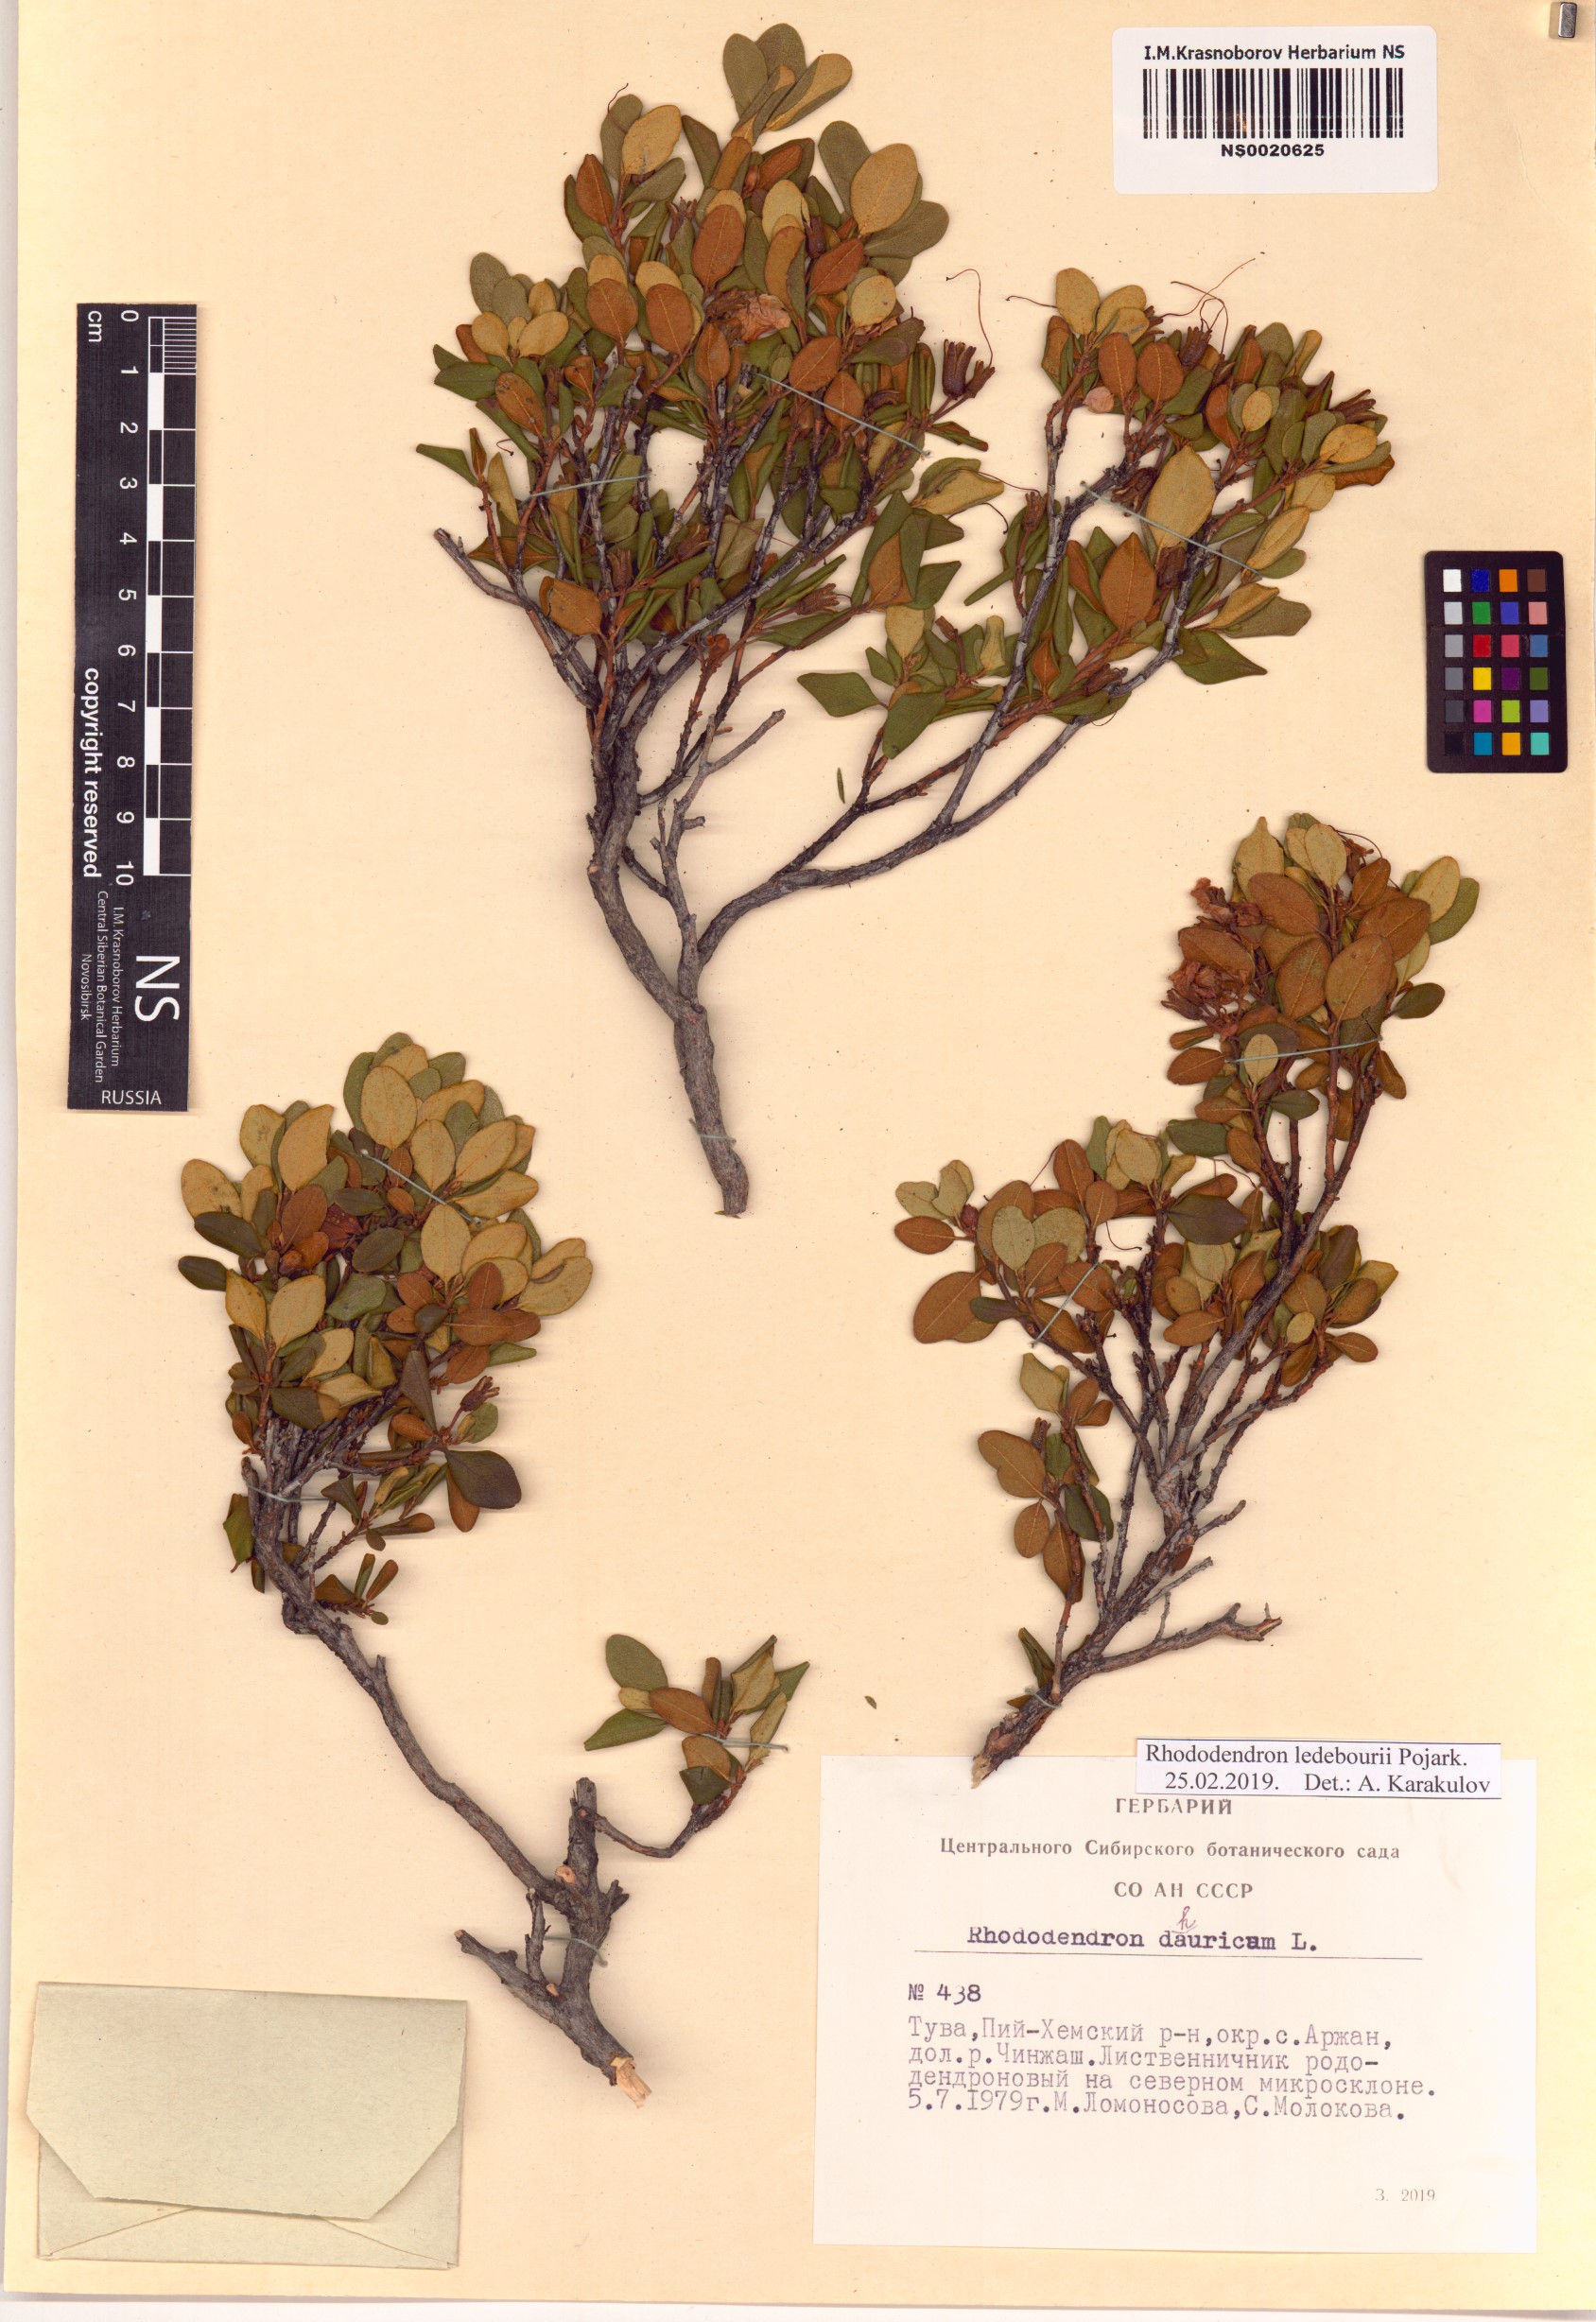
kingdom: Plantae
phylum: Tracheophyta
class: Magnoliopsida
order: Ericales
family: Ericaceae
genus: Rhododendron
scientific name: Rhododendron dauricum
